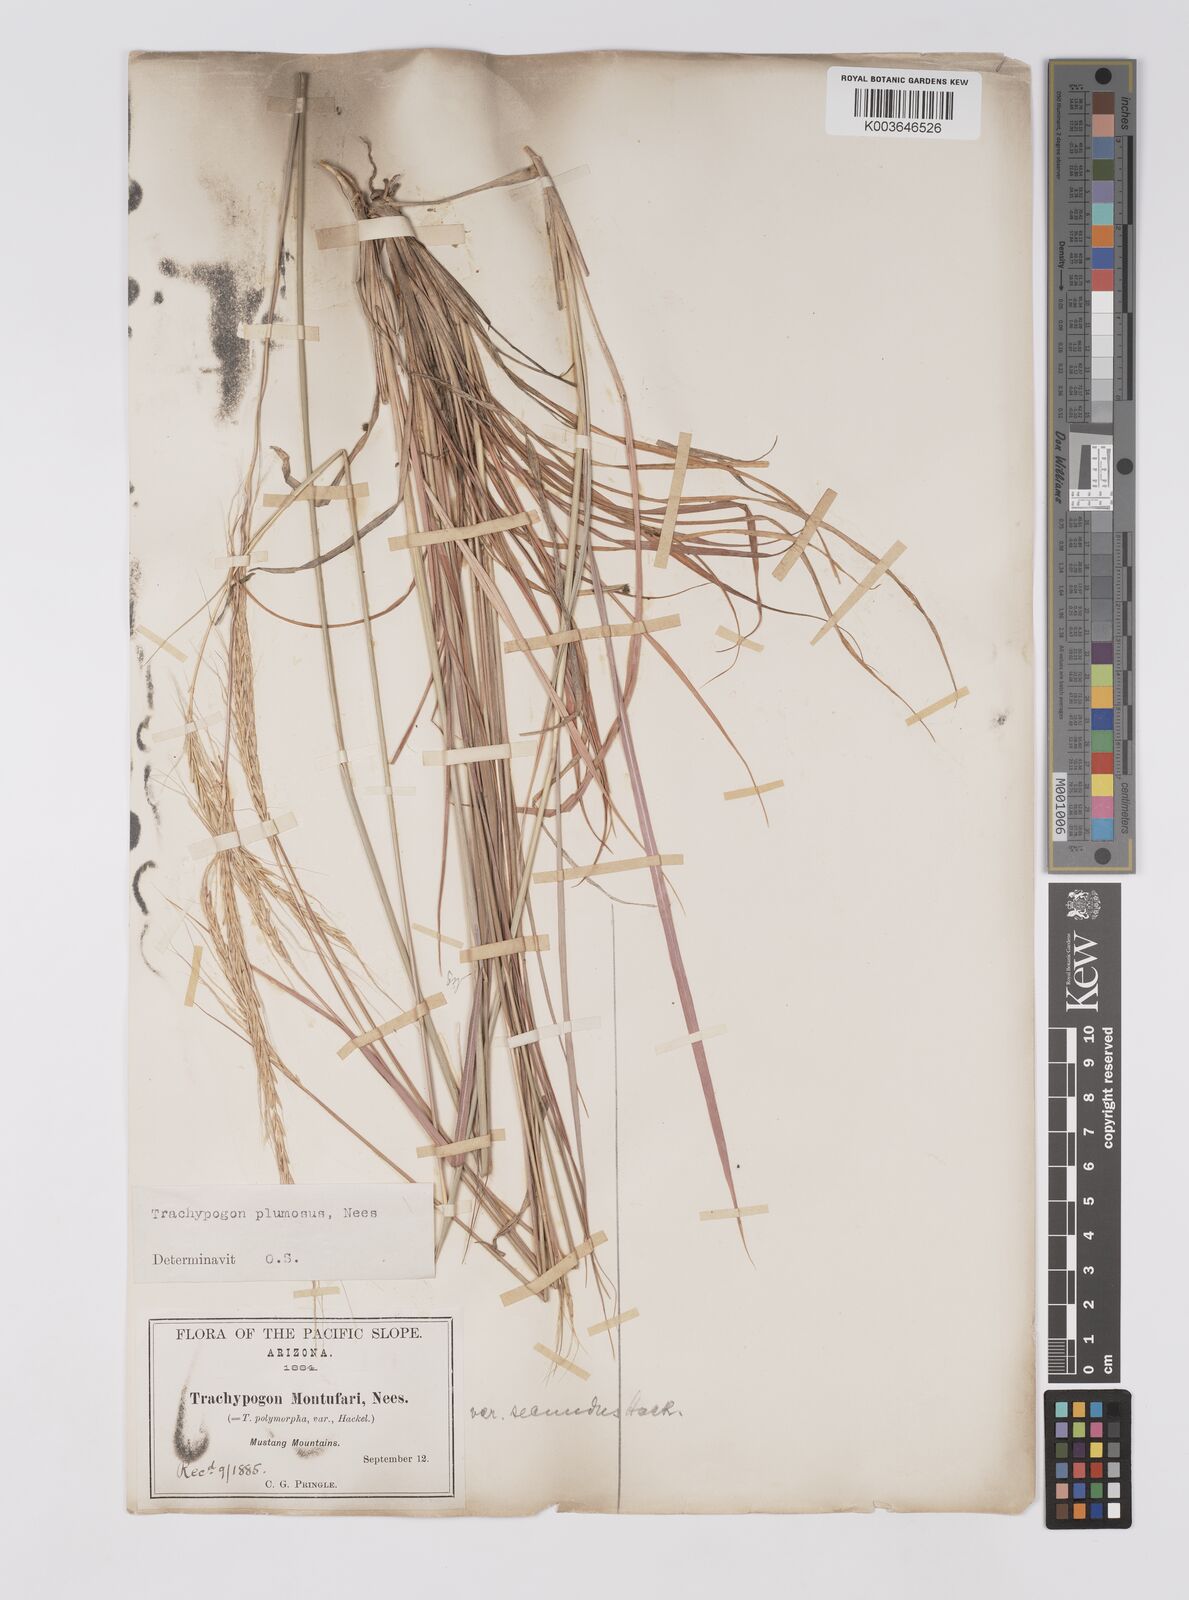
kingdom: Plantae
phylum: Tracheophyta
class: Liliopsida
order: Poales
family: Poaceae
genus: Trachypogon
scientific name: Trachypogon spicatus
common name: Crinkle-awn
